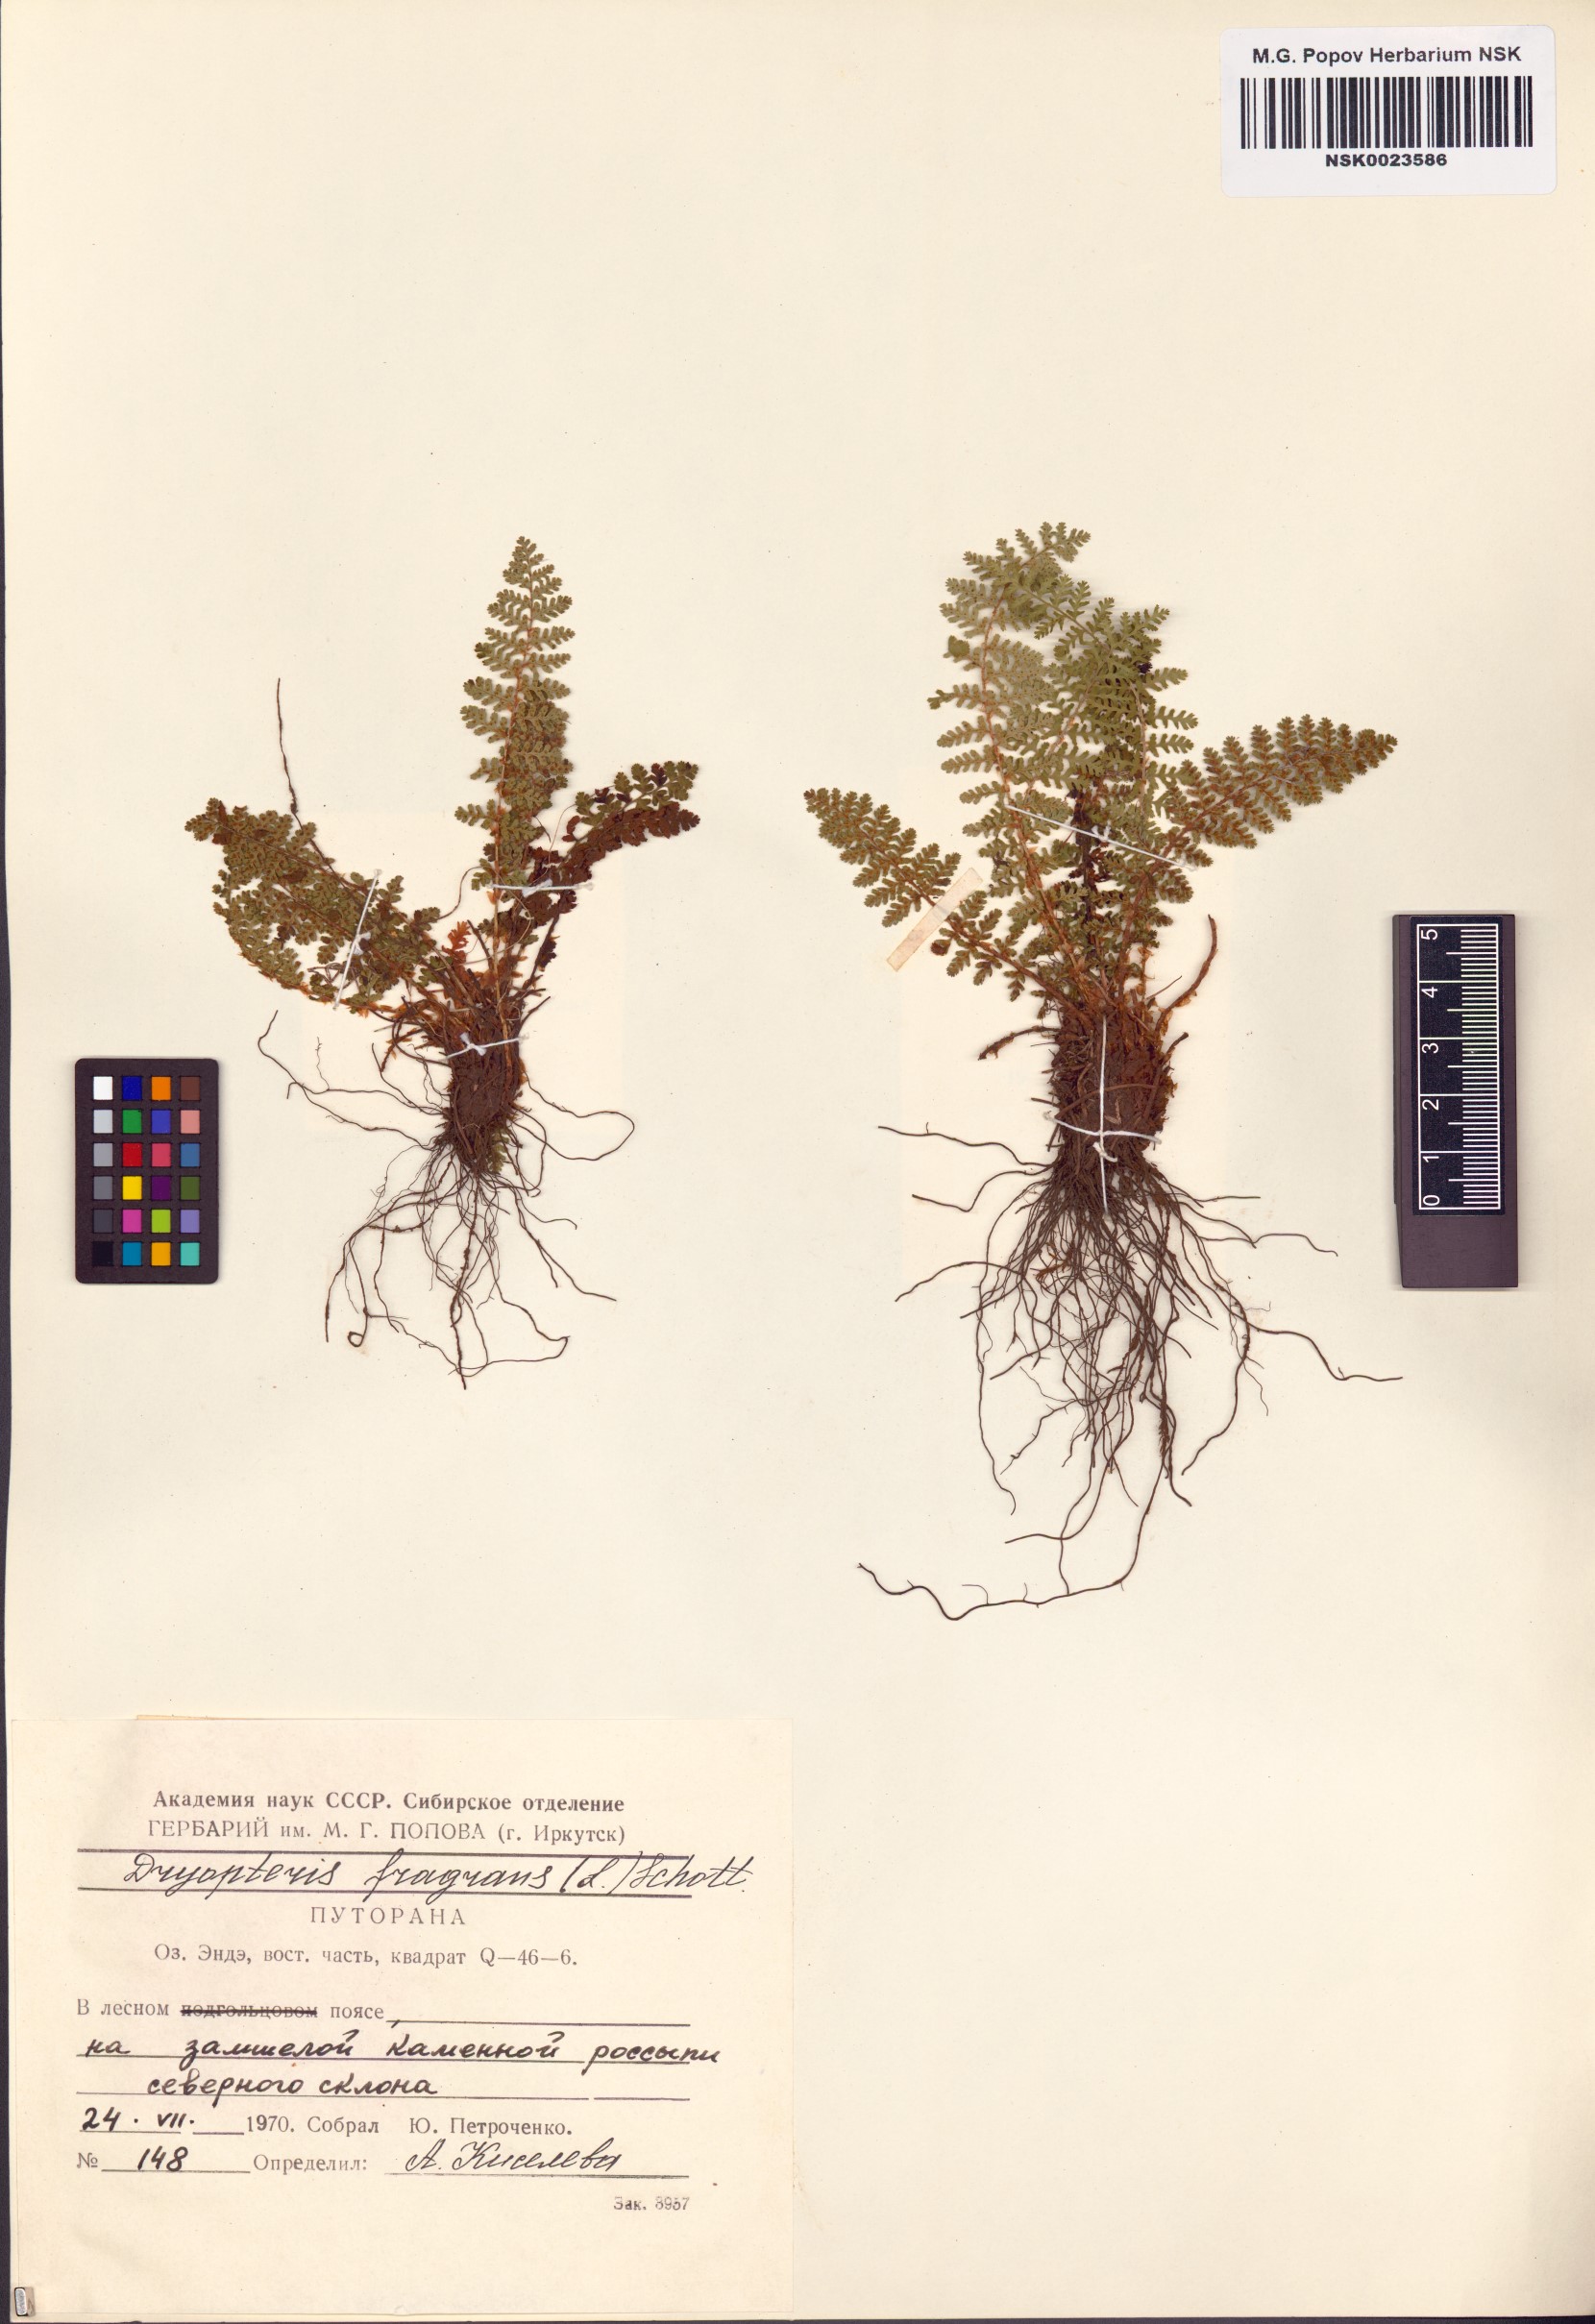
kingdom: Plantae
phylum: Tracheophyta
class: Polypodiopsida
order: Polypodiales
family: Dryopteridaceae
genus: Dryopteris
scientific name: Dryopteris fragrans
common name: Fragrant wood fern
